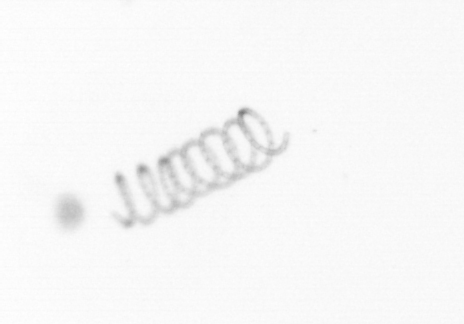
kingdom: Chromista
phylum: Ochrophyta
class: Bacillariophyceae
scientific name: Bacillariophyceae
